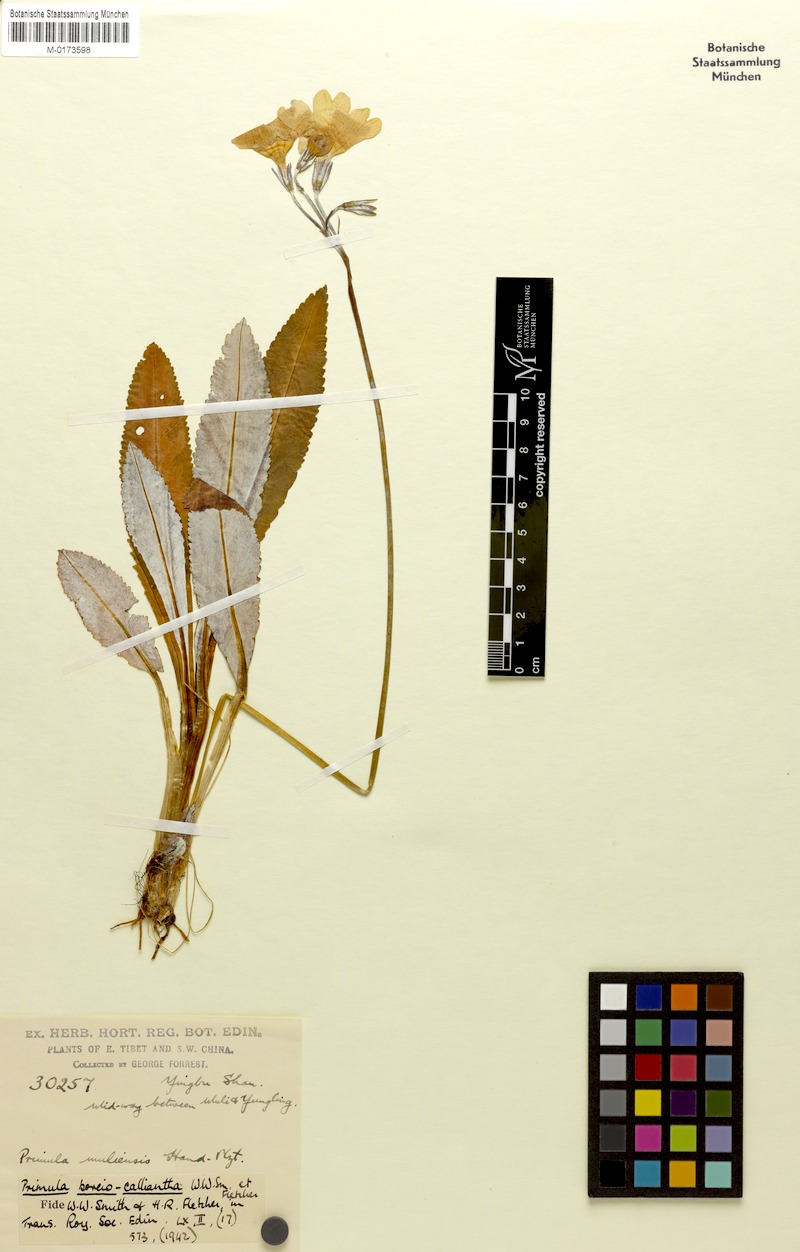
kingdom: Plantae
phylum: Tracheophyta
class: Magnoliopsida
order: Ericales
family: Primulaceae
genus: Primula
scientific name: Primula boreiocalliantha
